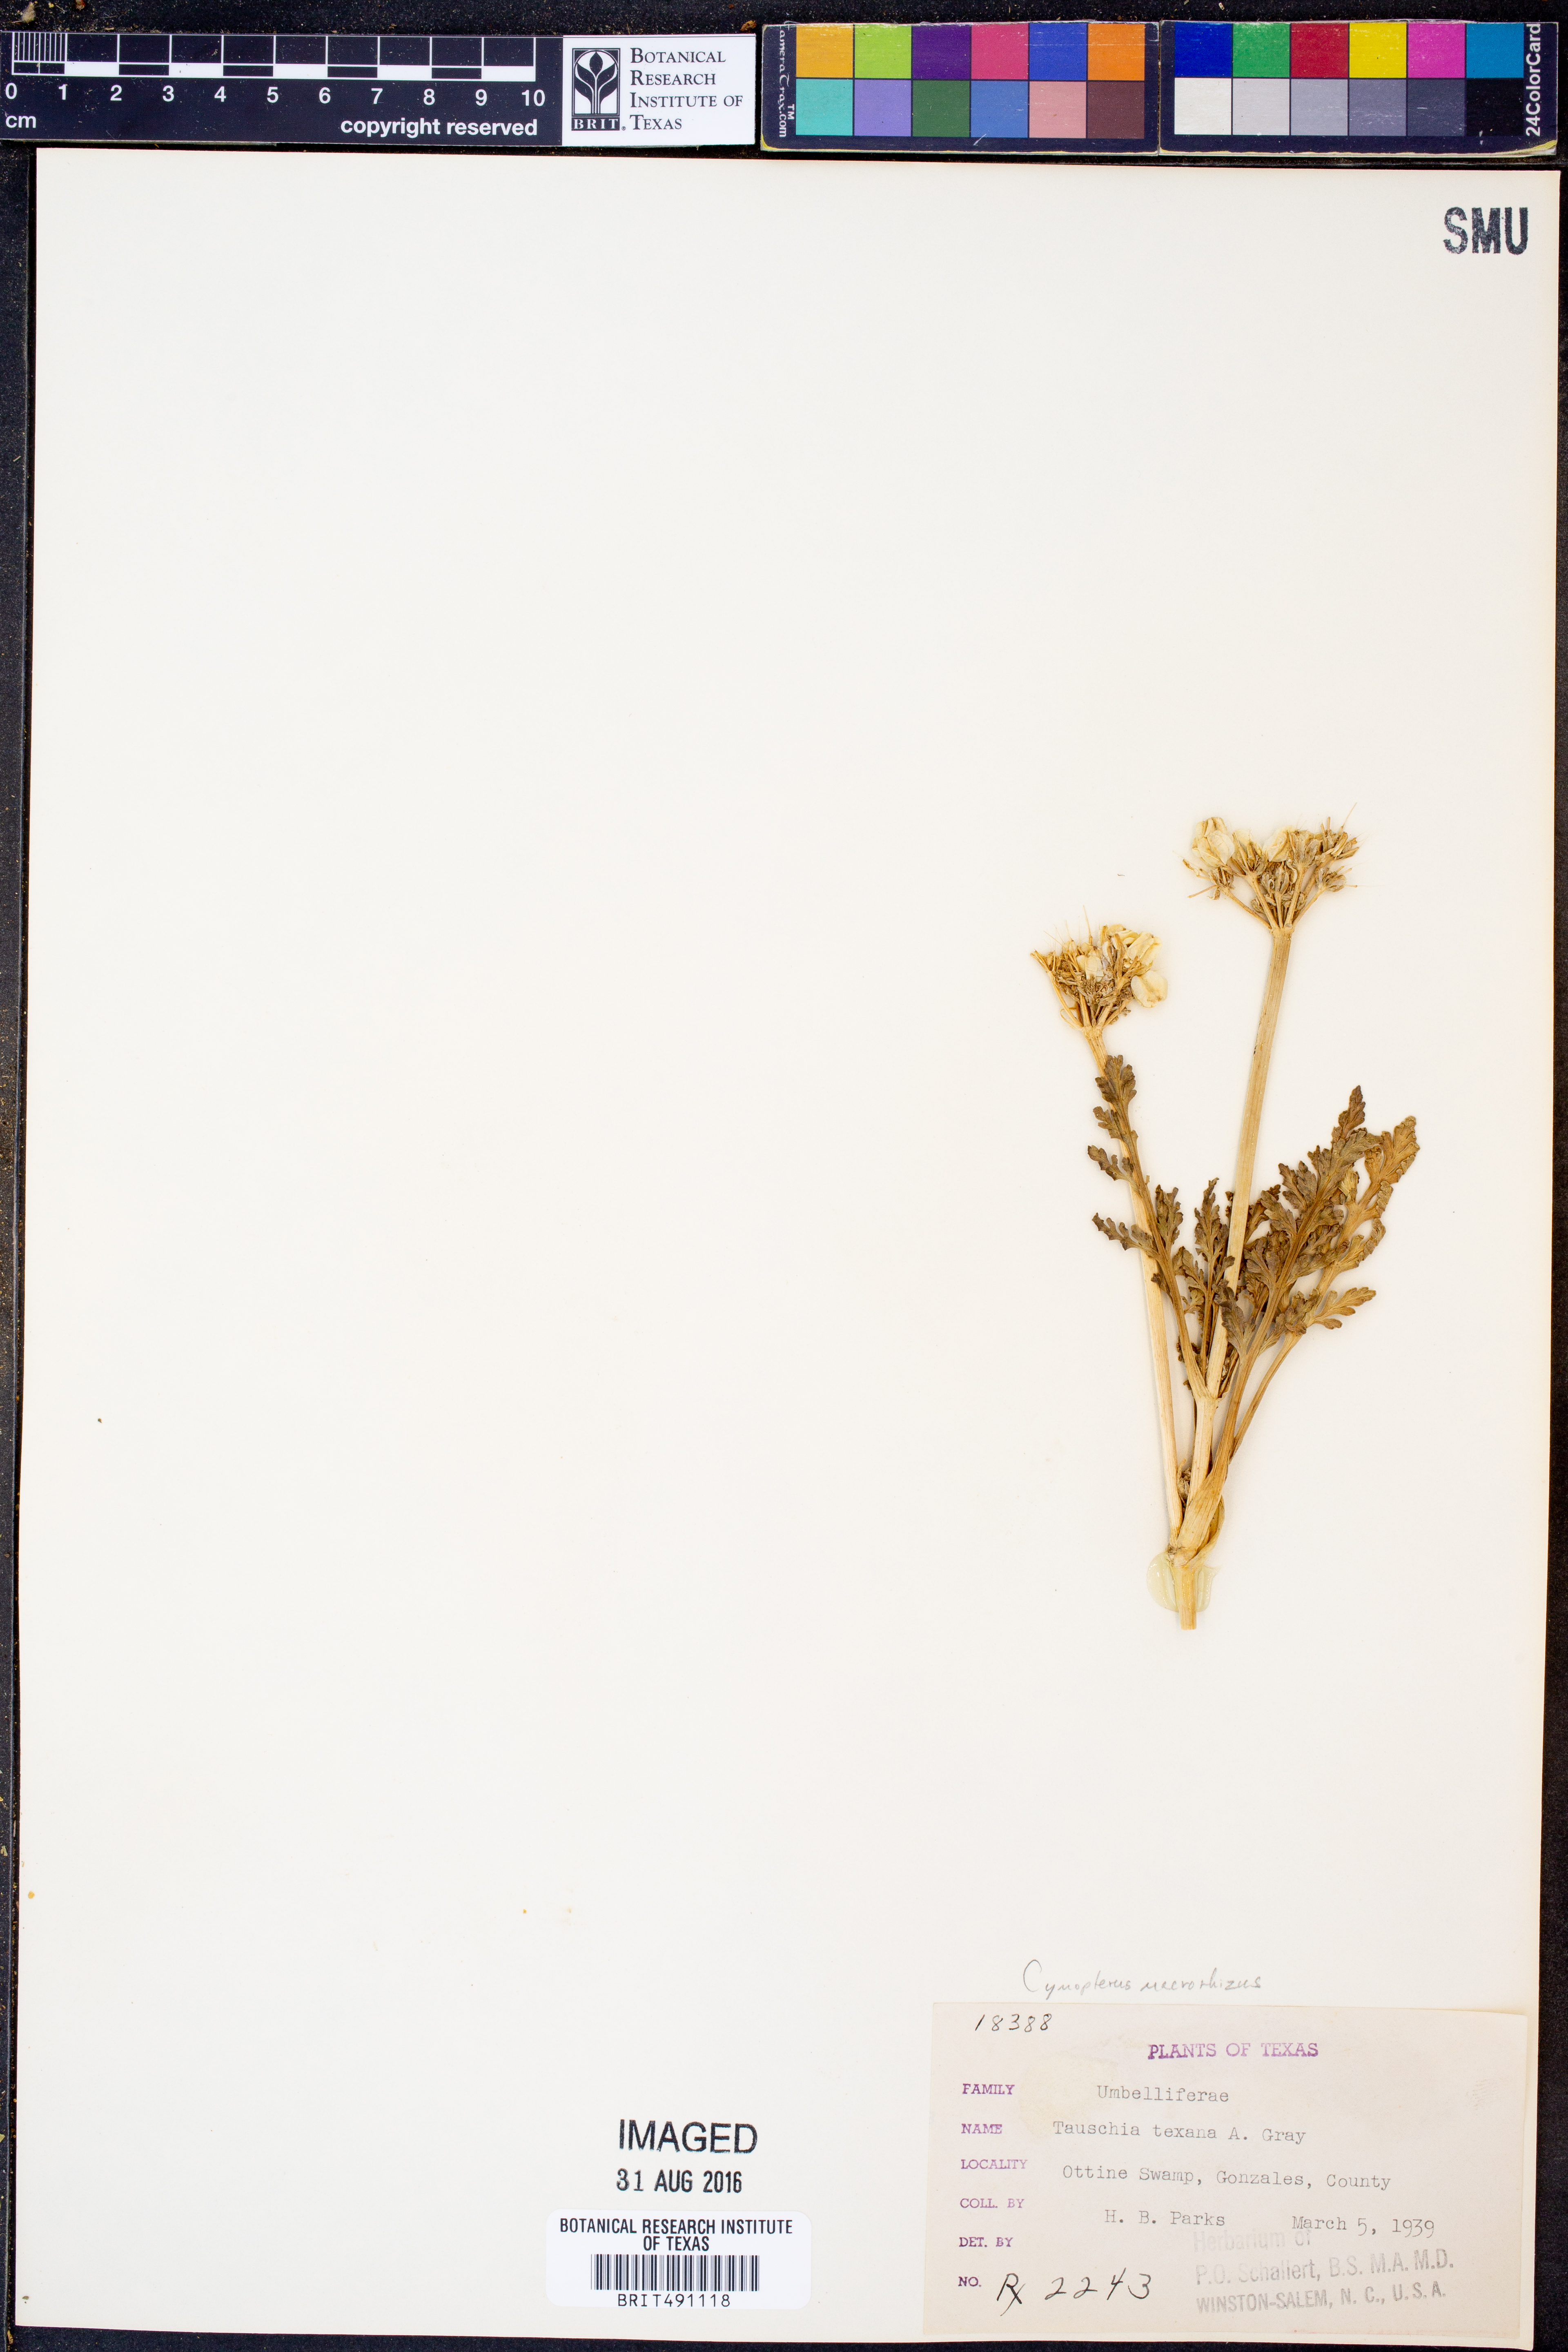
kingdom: Plantae
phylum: Tracheophyta
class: Magnoliopsida
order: Apiales
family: Apiaceae
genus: Vesper
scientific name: Vesper macrorhizus
